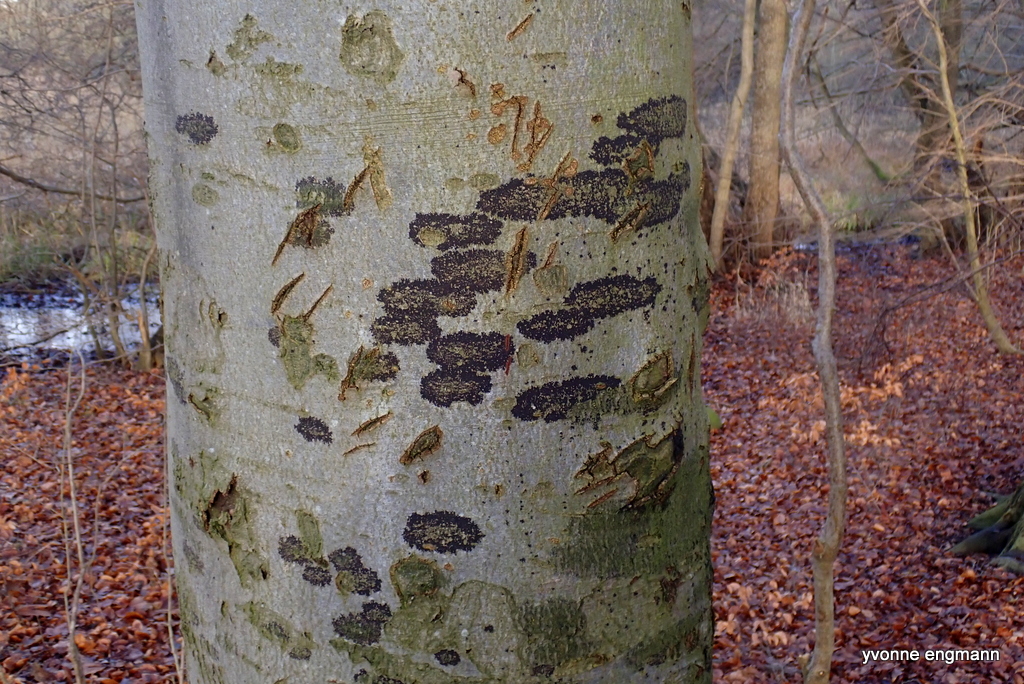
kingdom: Fungi
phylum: Ascomycota
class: Leotiomycetes
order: Rhytismatales
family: Ascodichaenaceae
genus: Ascodichaena
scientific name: Ascodichaena rugosa
